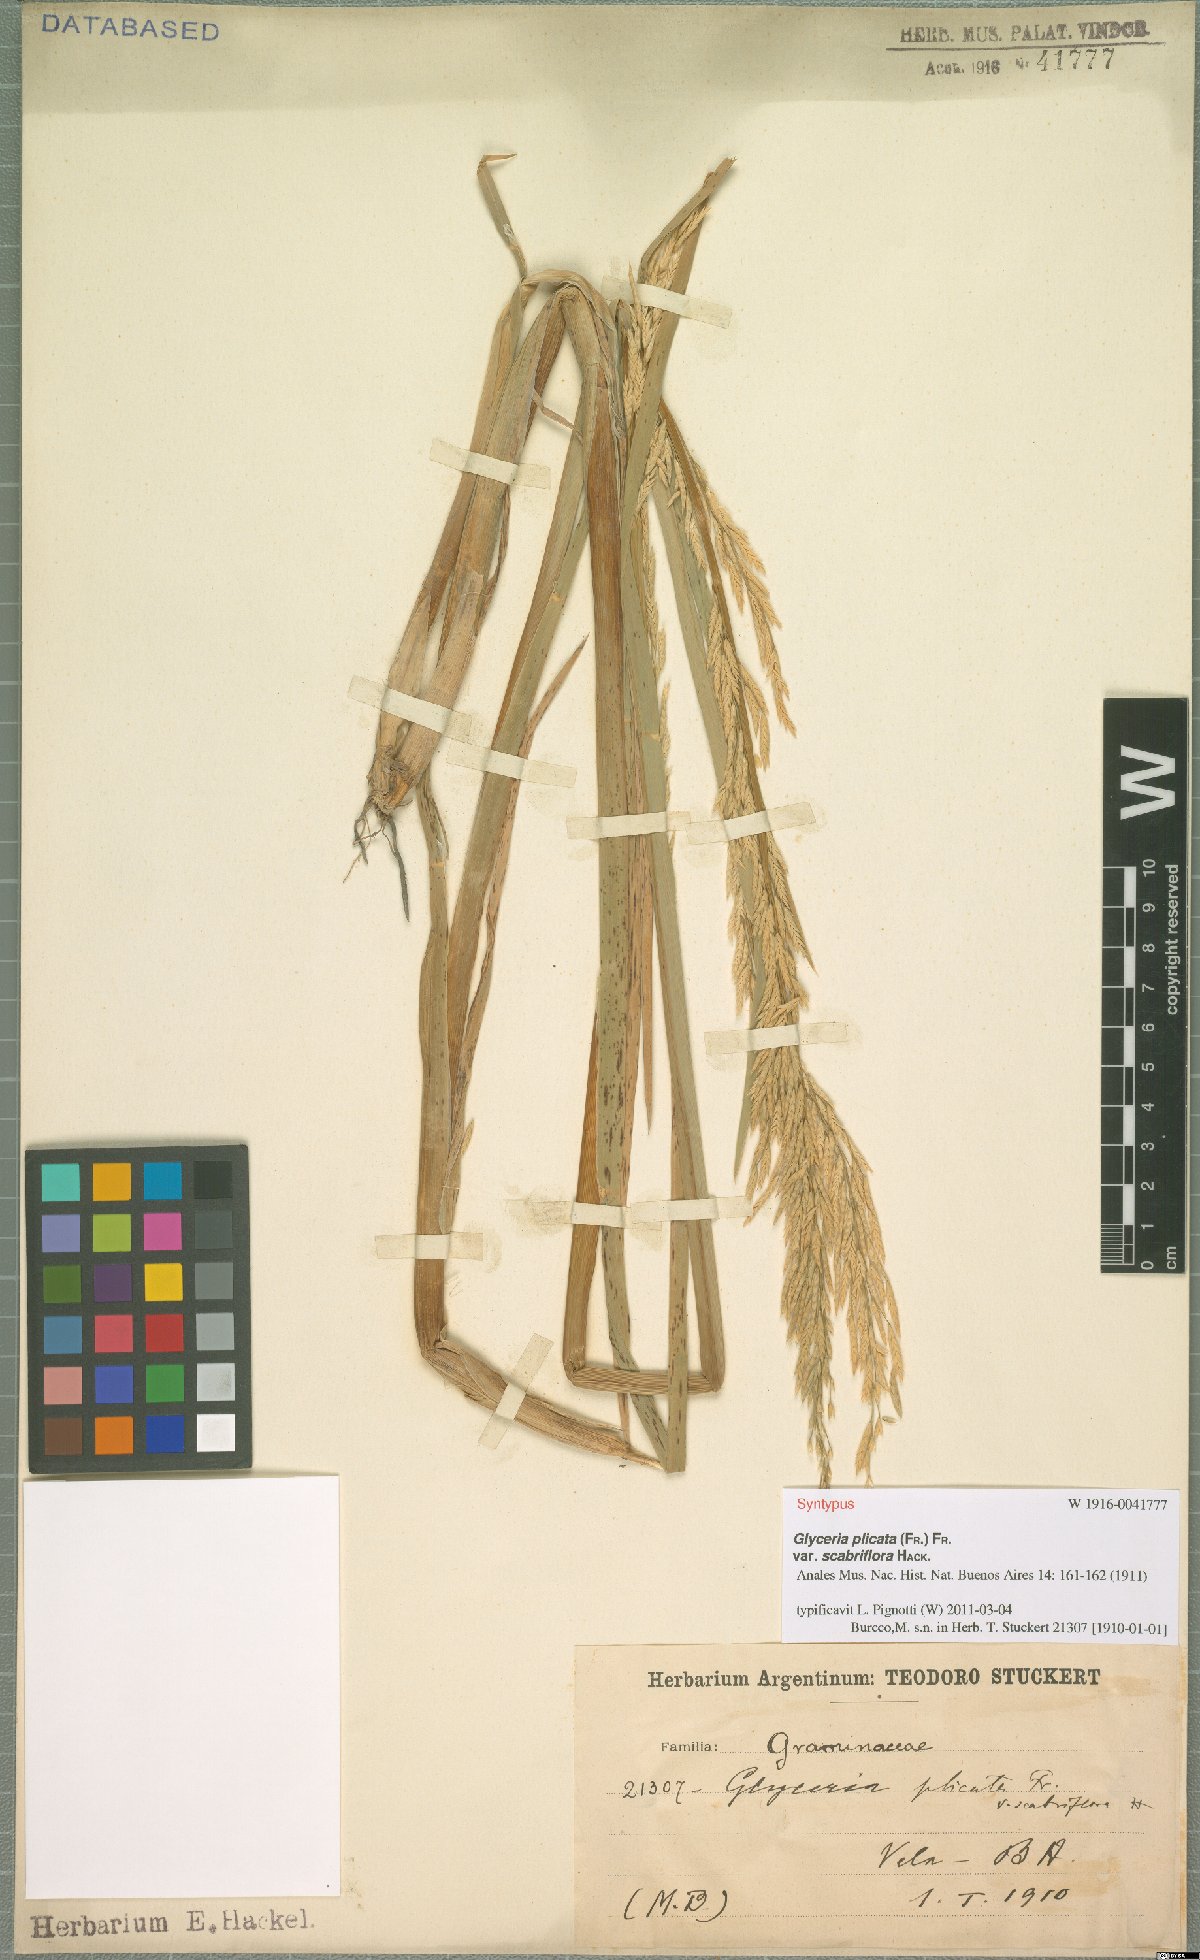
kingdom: Plantae
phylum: Tracheophyta
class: Liliopsida
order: Poales
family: Poaceae
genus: Glyceria
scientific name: Glyceria notata
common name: Plicate sweet-grass
